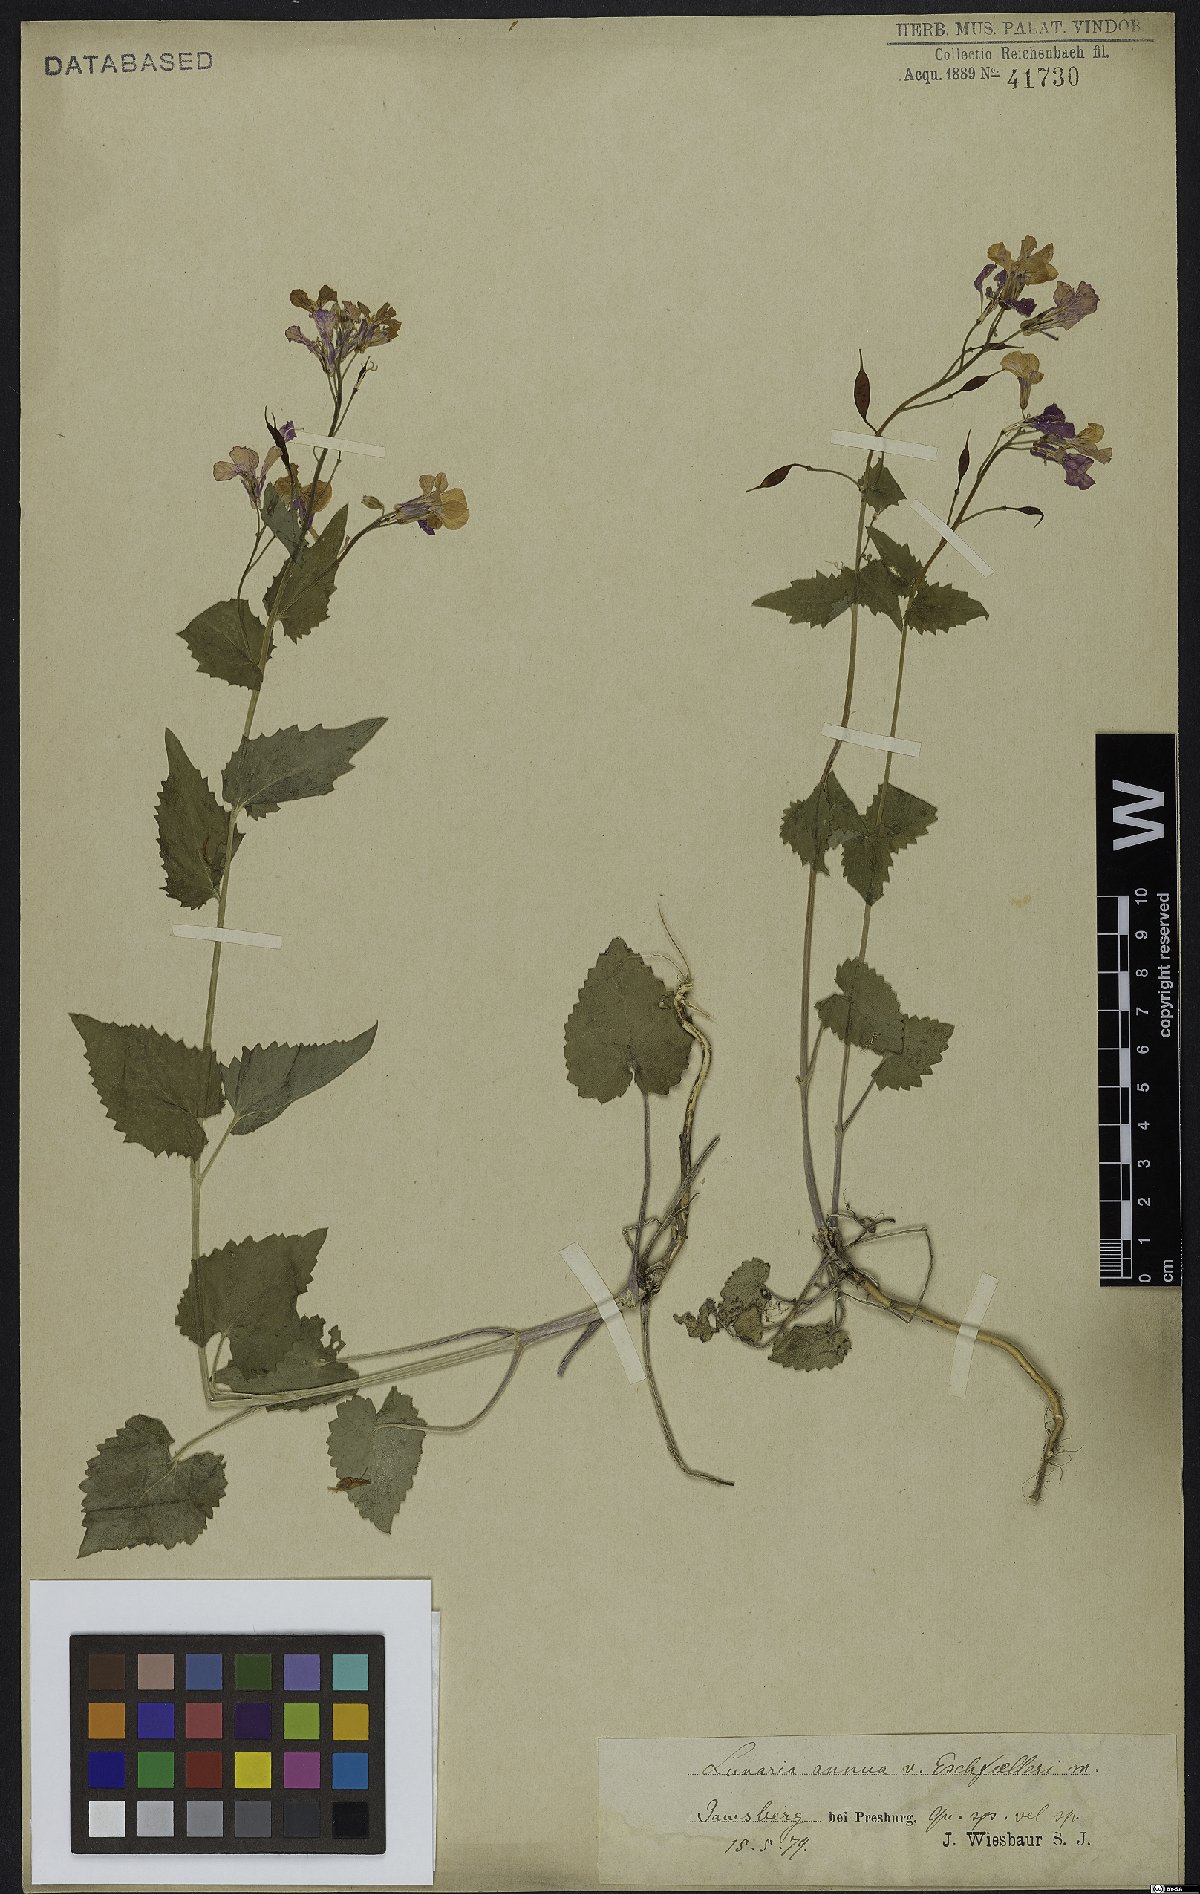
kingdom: Plantae
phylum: Tracheophyta
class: Magnoliopsida
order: Brassicales
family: Brassicaceae
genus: Lunaria
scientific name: Lunaria annua
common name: Honesty
